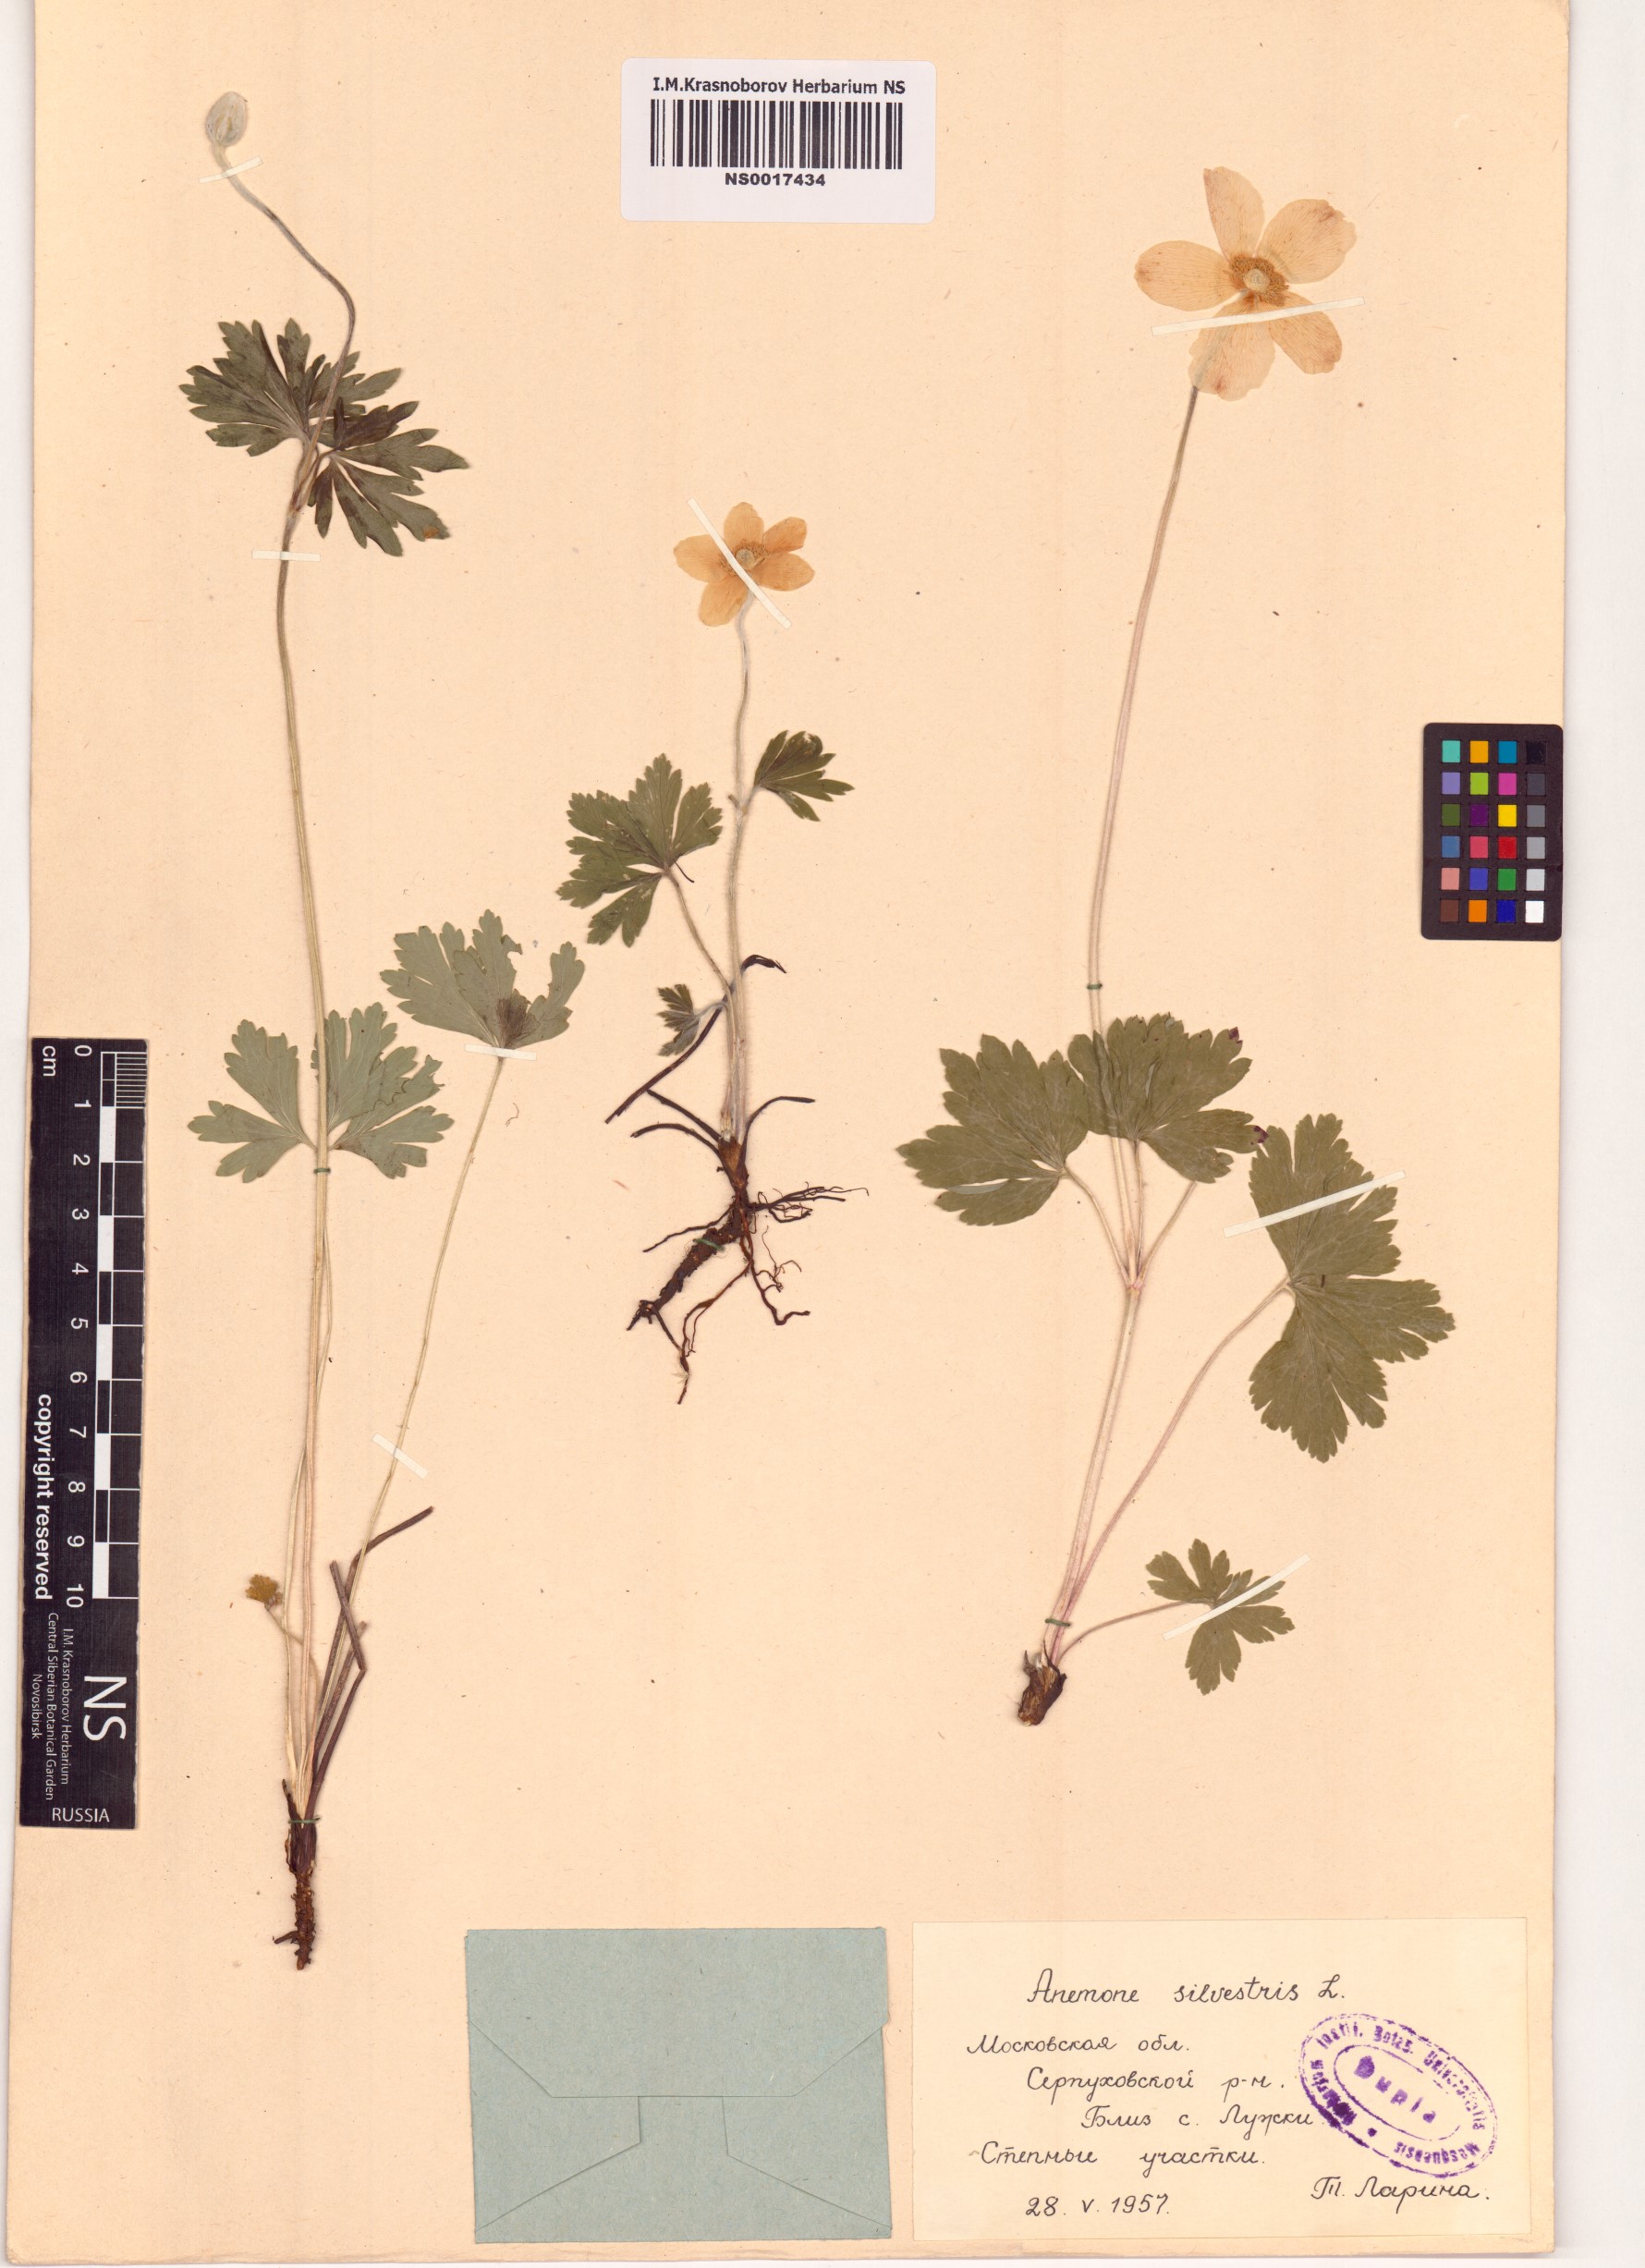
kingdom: Plantae
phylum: Tracheophyta
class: Magnoliopsida
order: Ranunculales
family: Ranunculaceae
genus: Anemone
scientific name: Anemone sylvestris
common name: Snowdrop anemone
